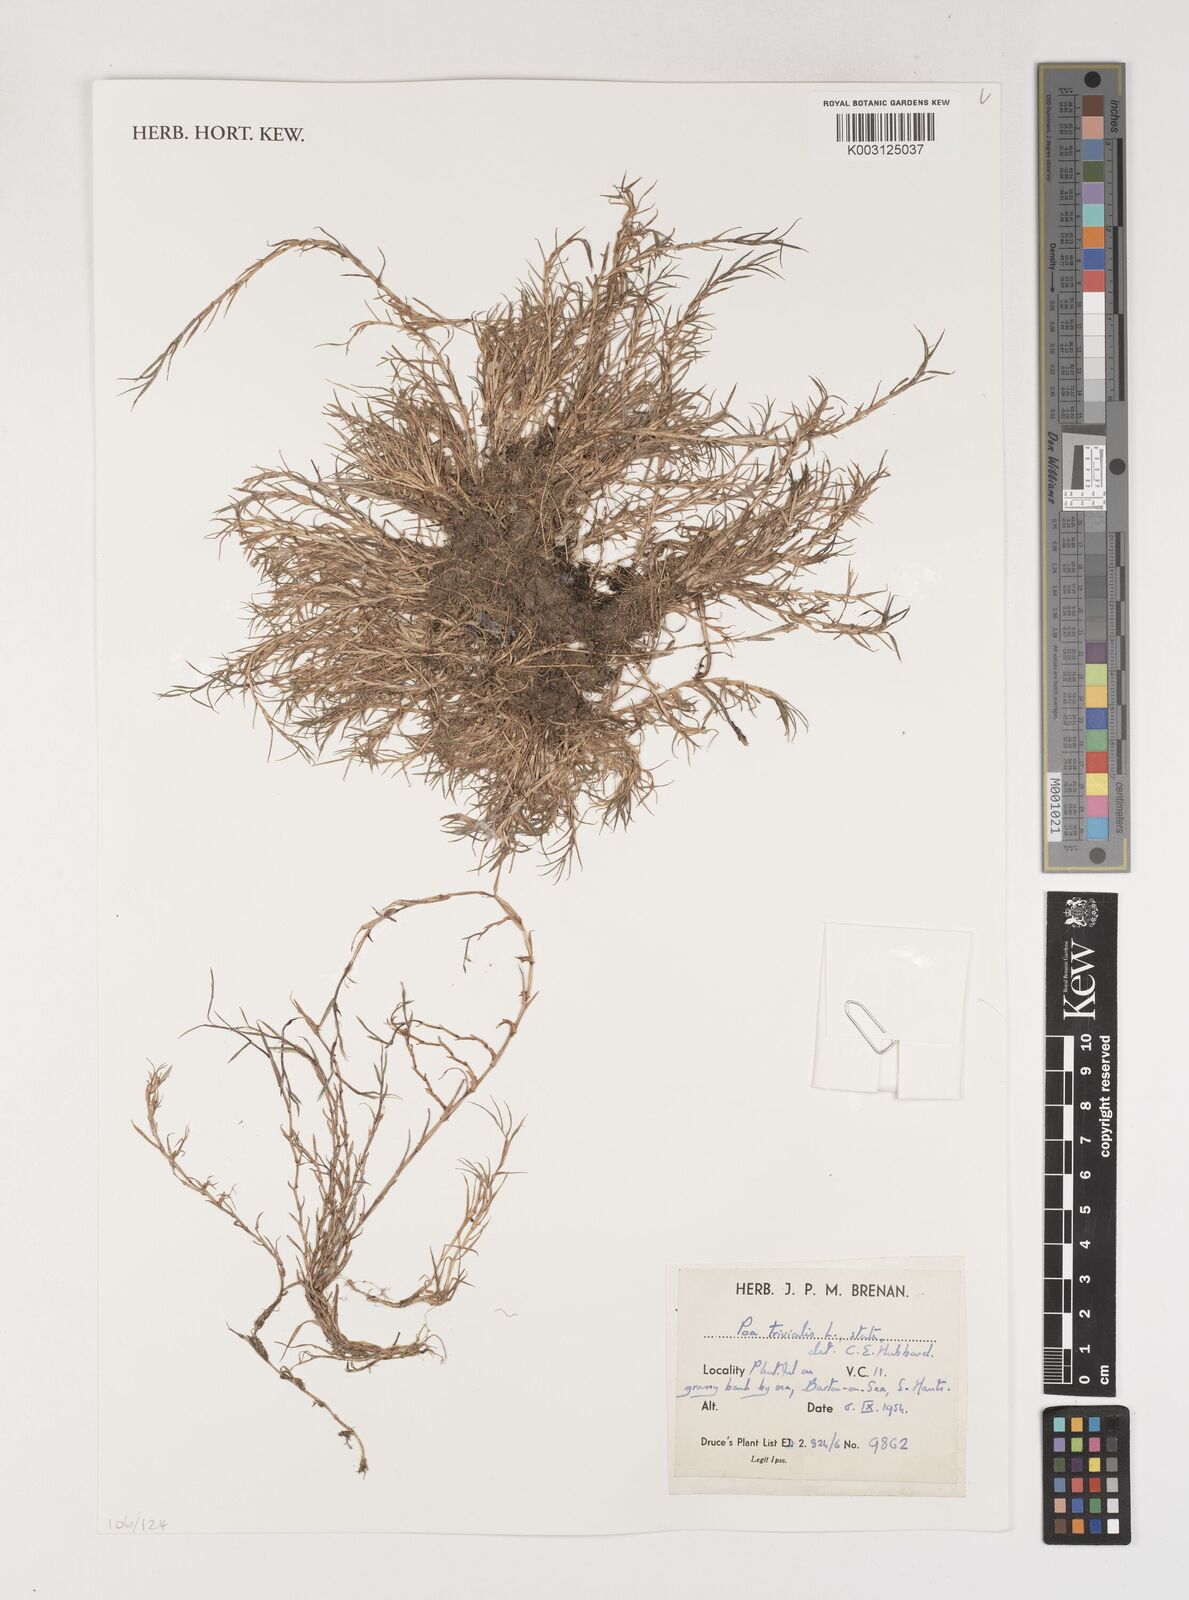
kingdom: Plantae
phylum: Tracheophyta
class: Liliopsida
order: Poales
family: Poaceae
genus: Poa
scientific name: Poa trivialis
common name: Rough bluegrass
